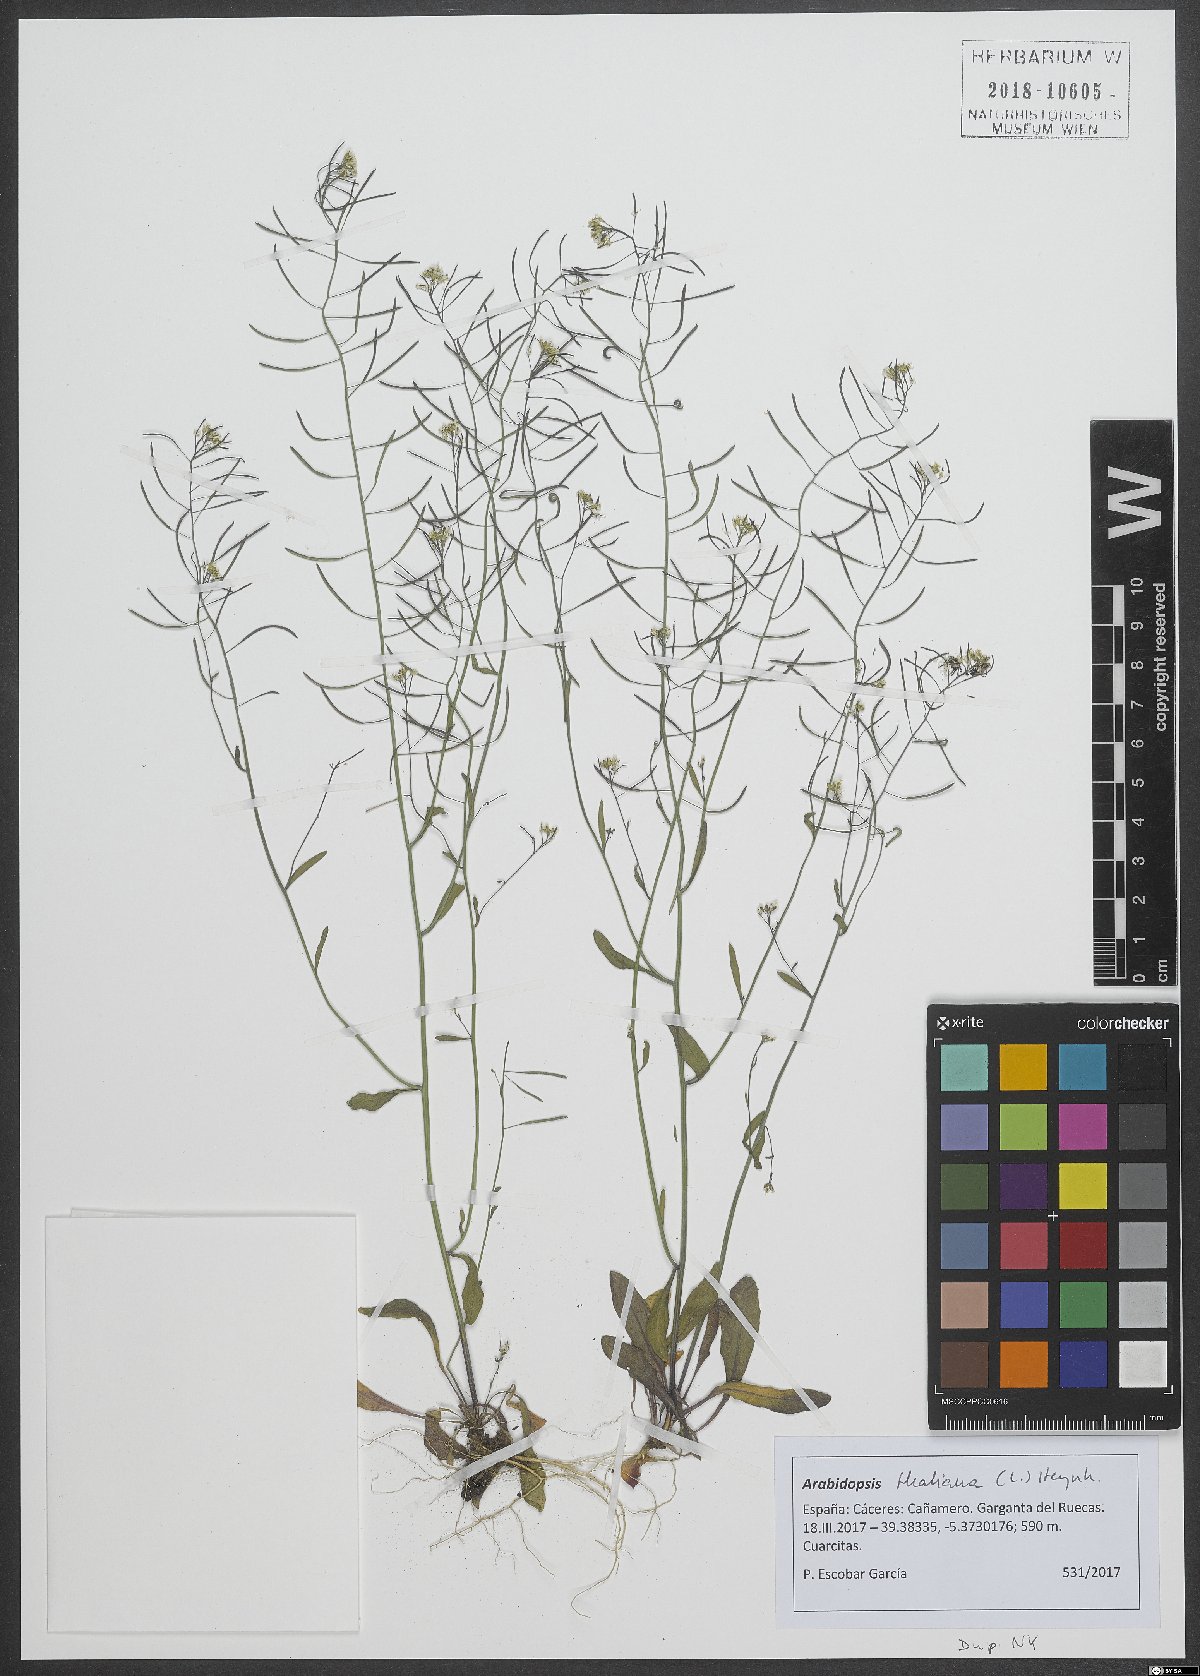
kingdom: Plantae
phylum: Tracheophyta
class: Magnoliopsida
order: Brassicales
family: Brassicaceae
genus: Arabidopsis
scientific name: Arabidopsis thaliana
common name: Thale cress
